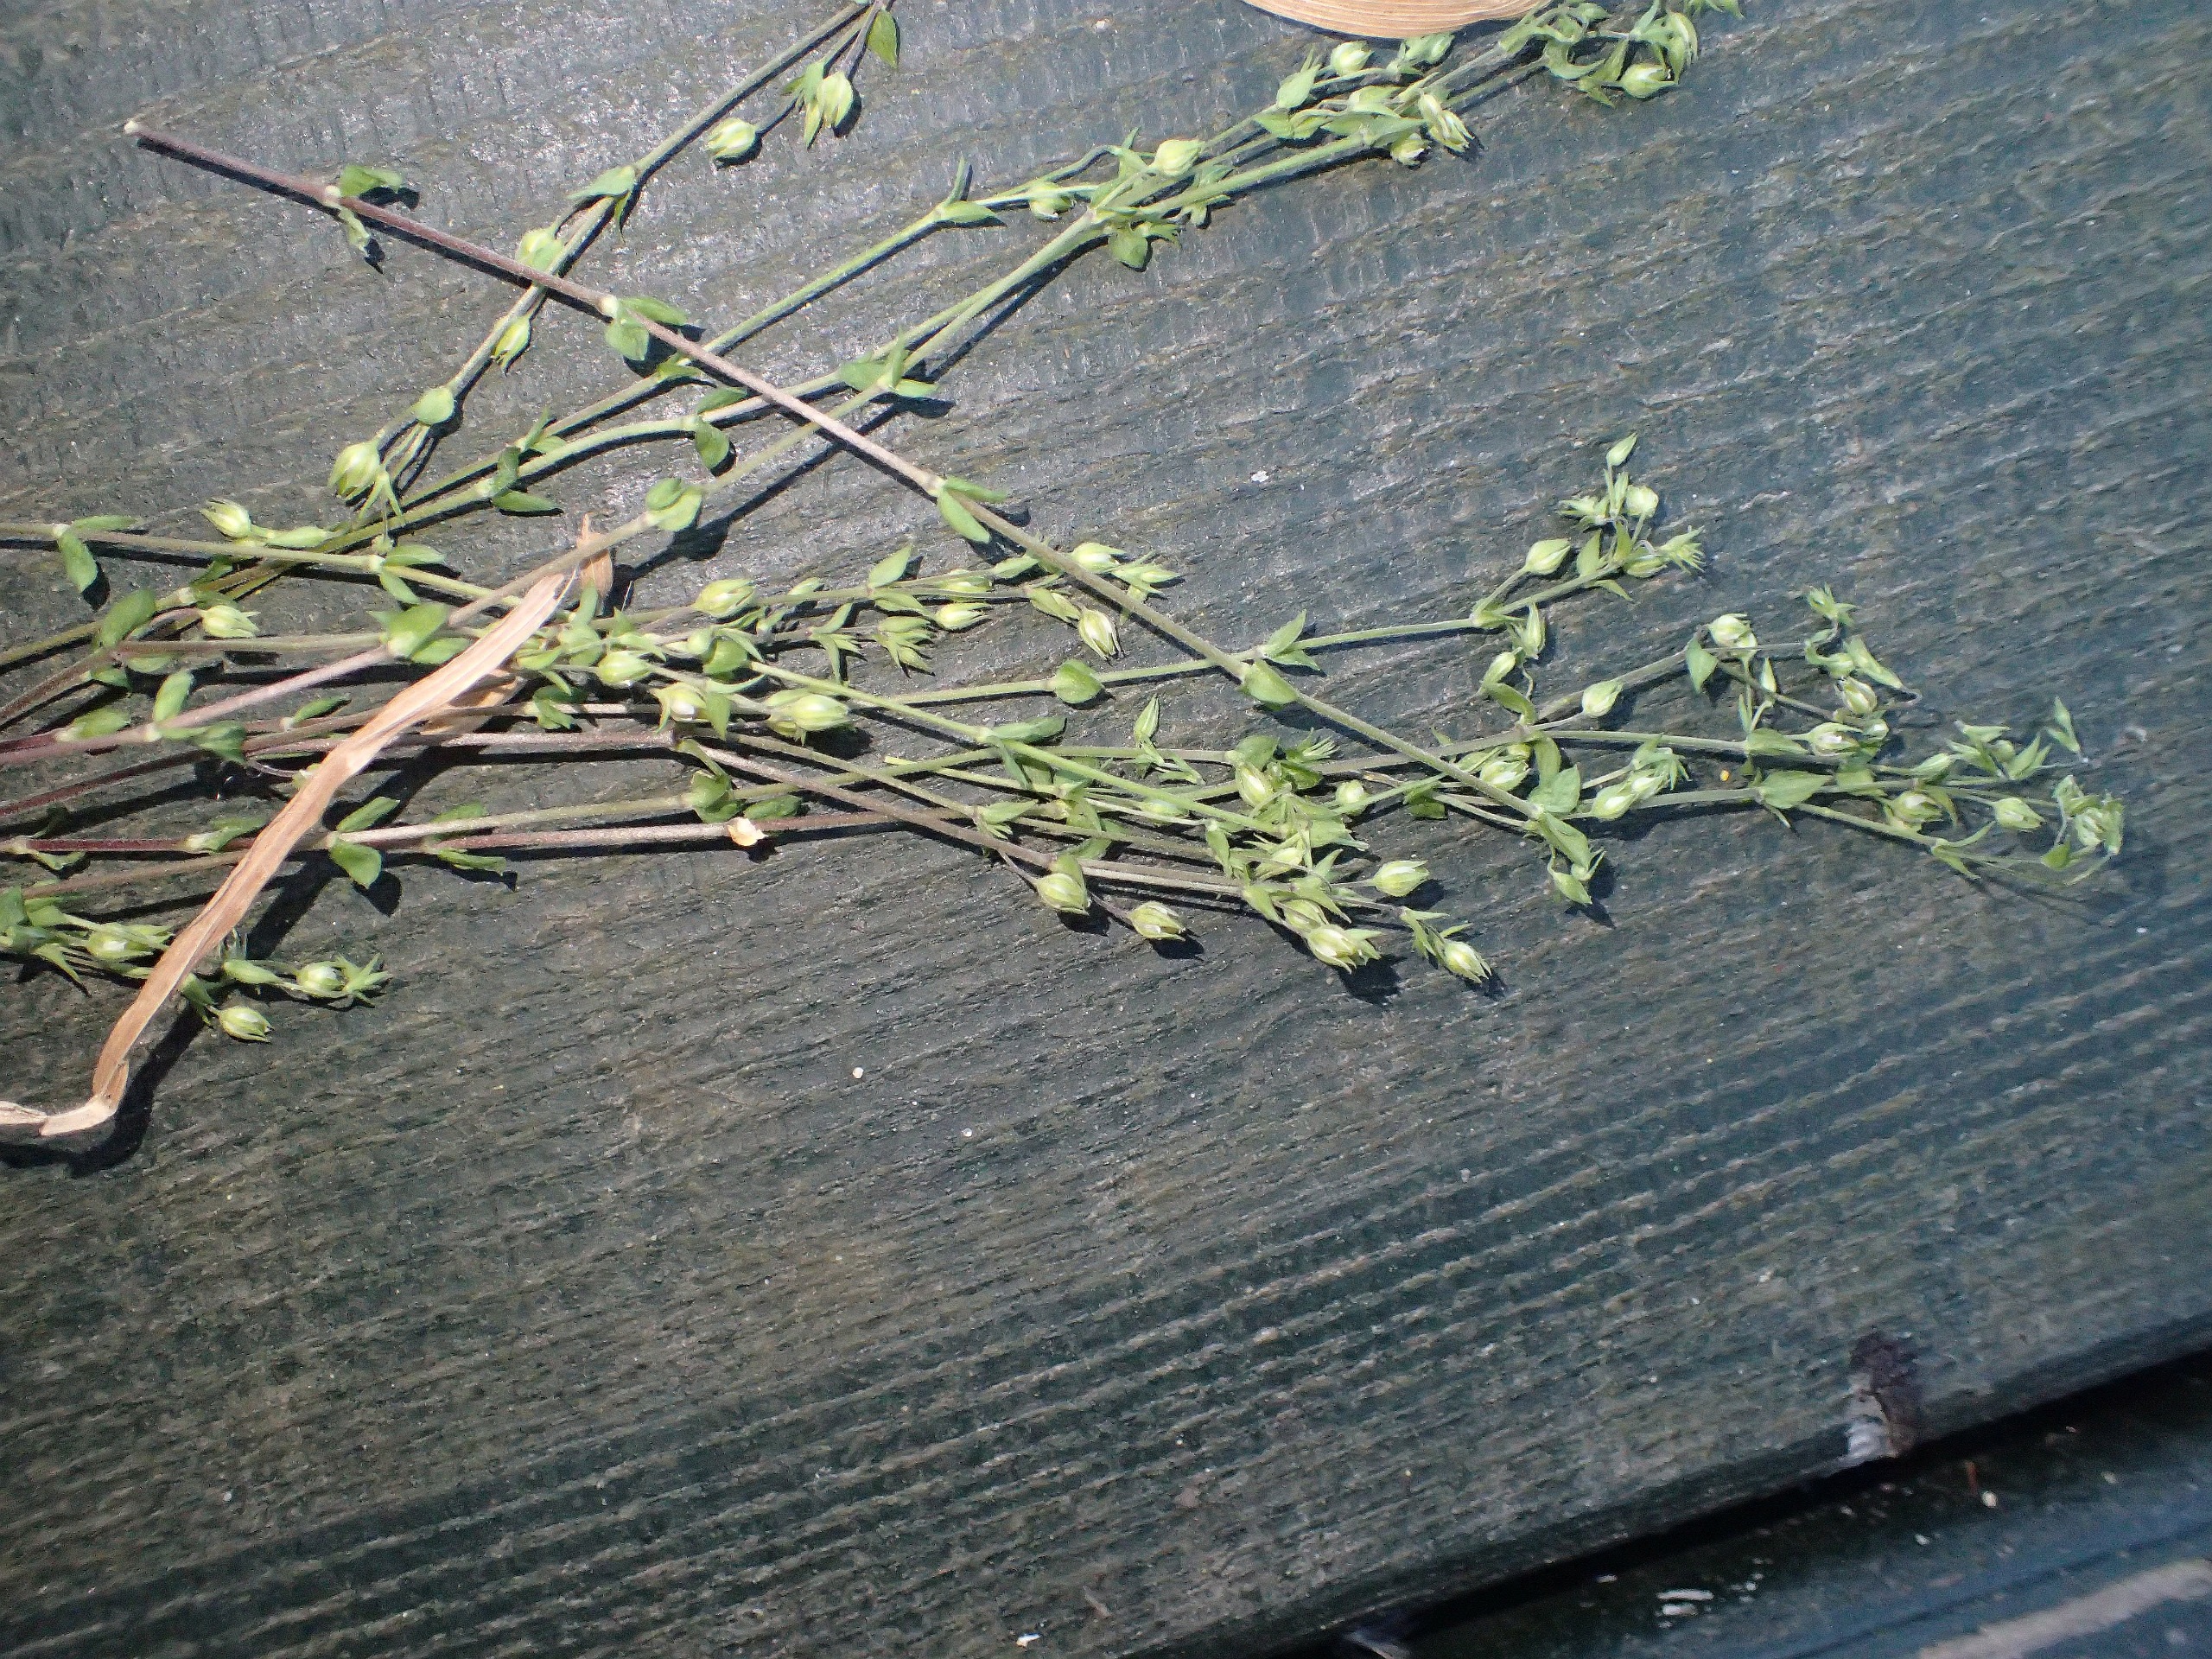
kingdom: Plantae
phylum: Tracheophyta
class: Magnoliopsida
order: Caryophyllales
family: Caryophyllaceae
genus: Arenaria
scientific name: Arenaria serpyllifolia
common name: Almindelig markarve
